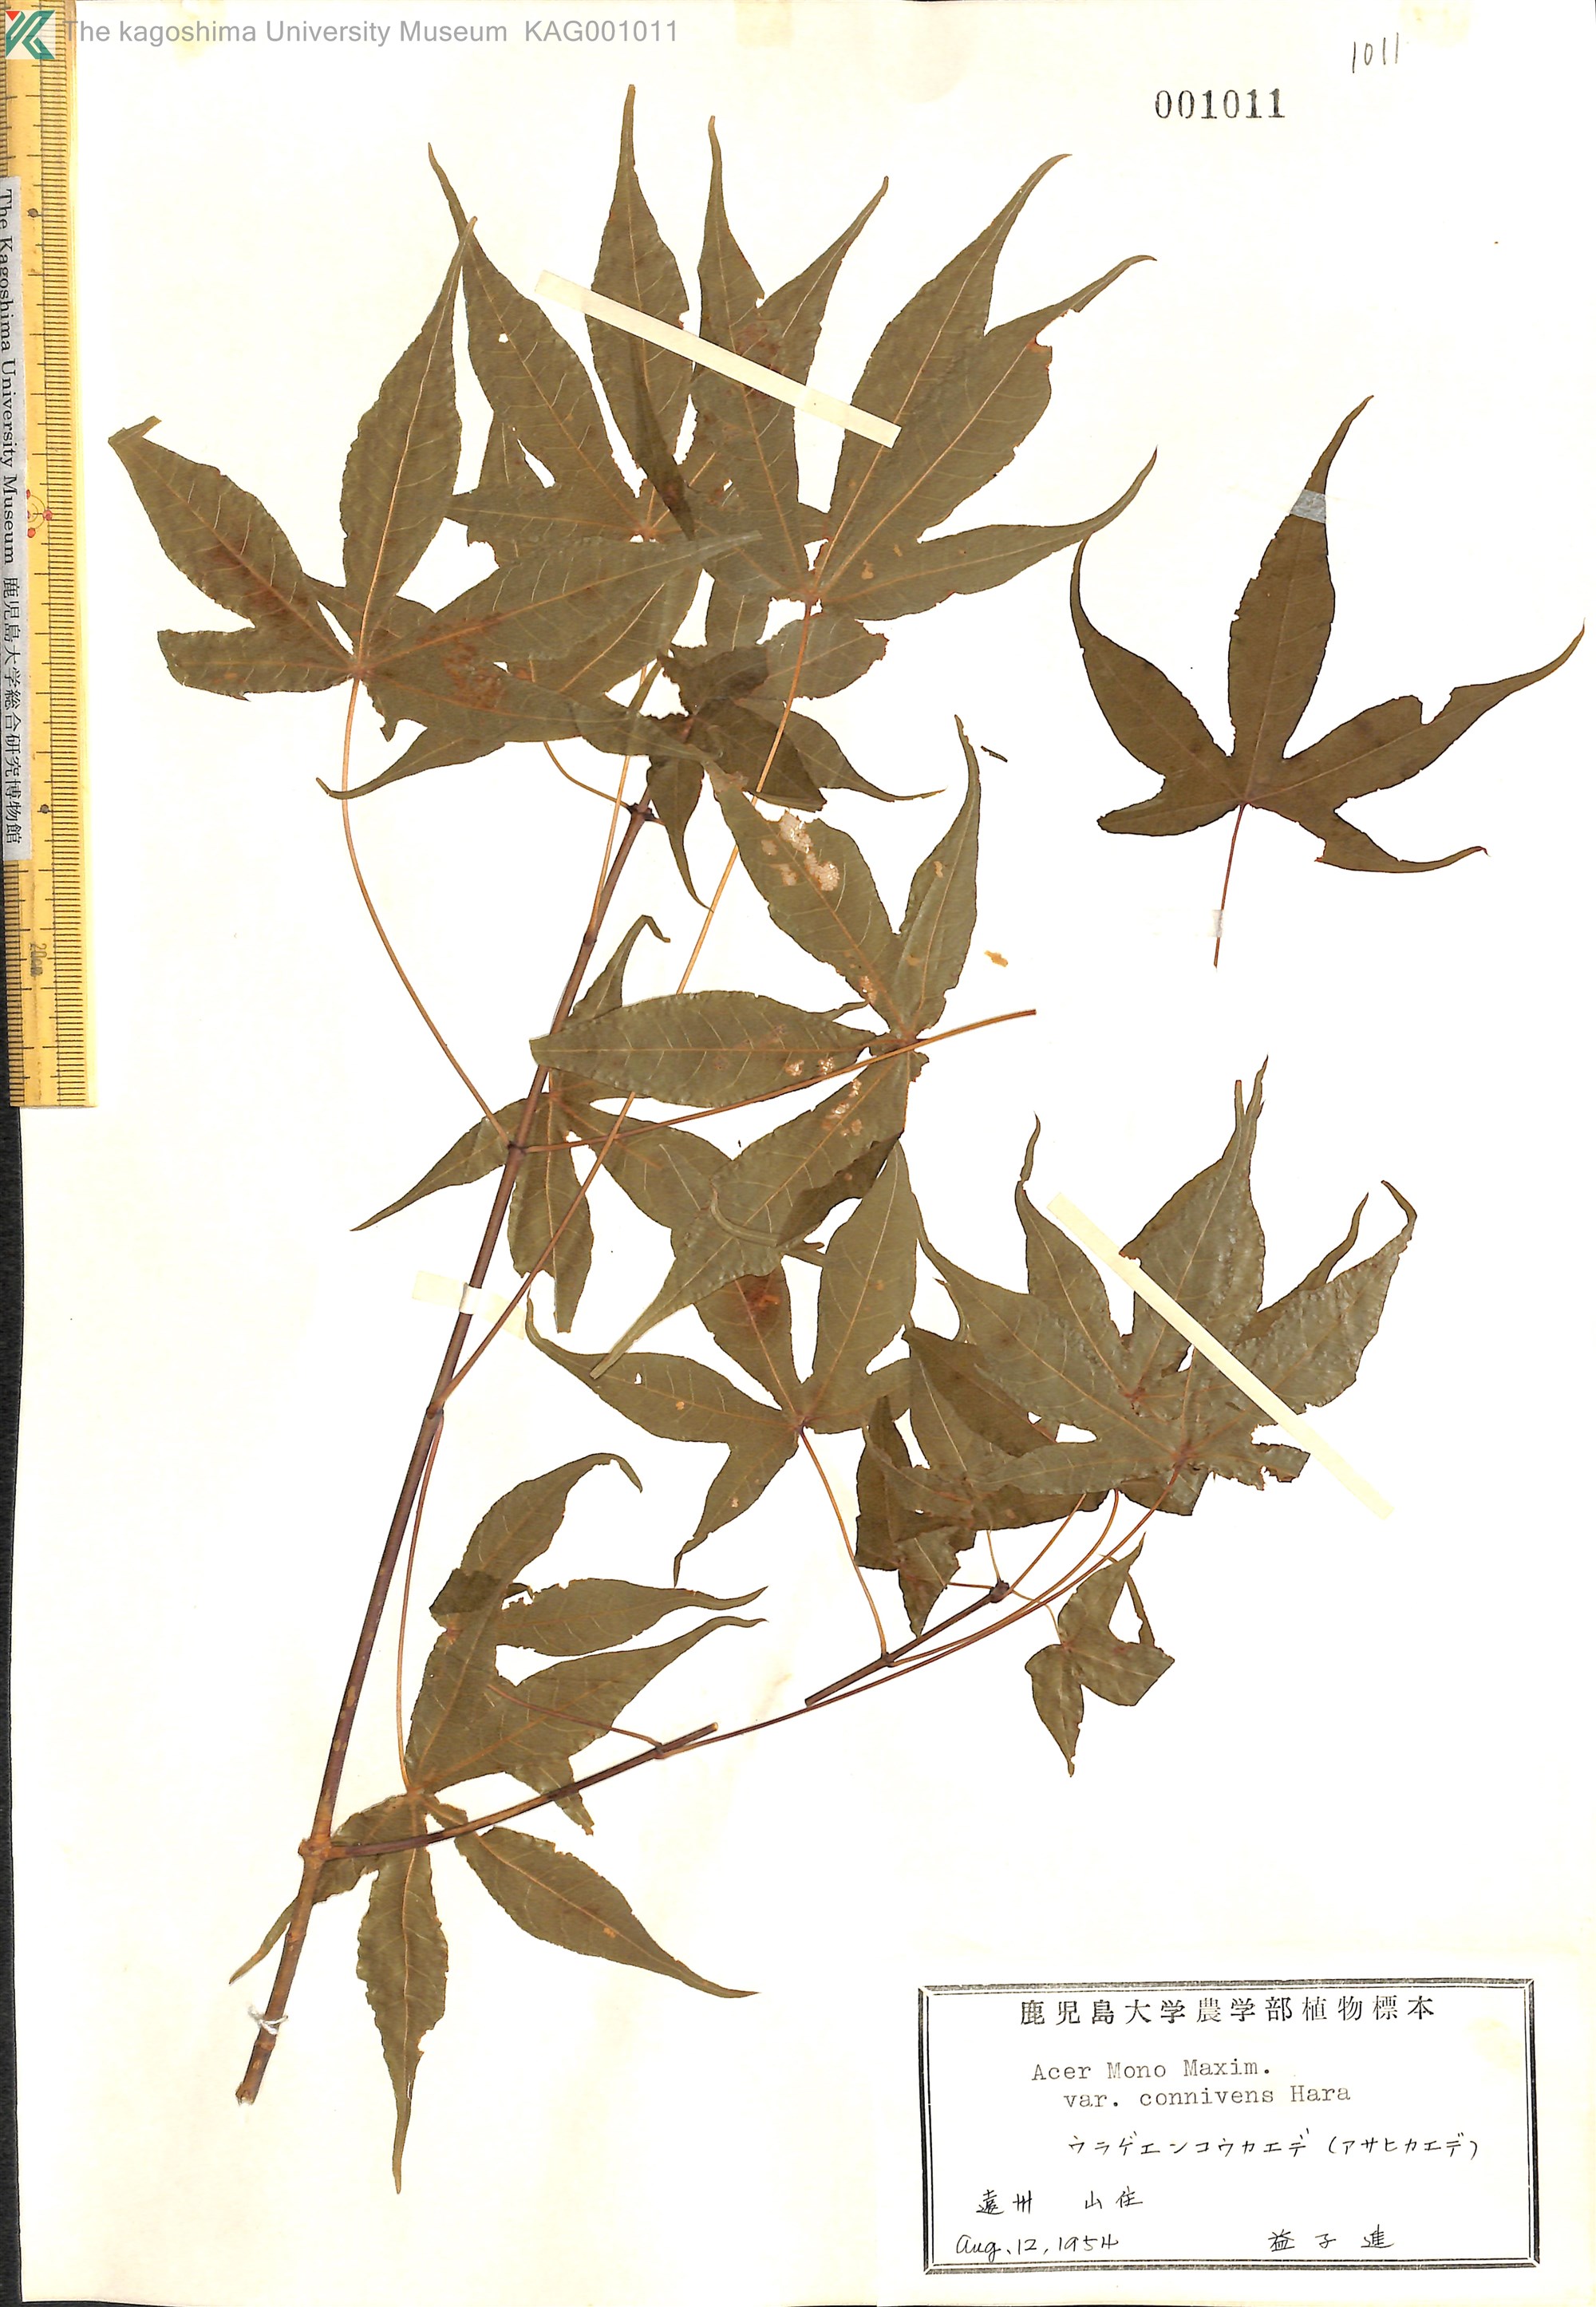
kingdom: Plantae
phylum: Tracheophyta
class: Magnoliopsida
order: Sapindales
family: Sapindaceae
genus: Acer
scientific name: Acer pictum
